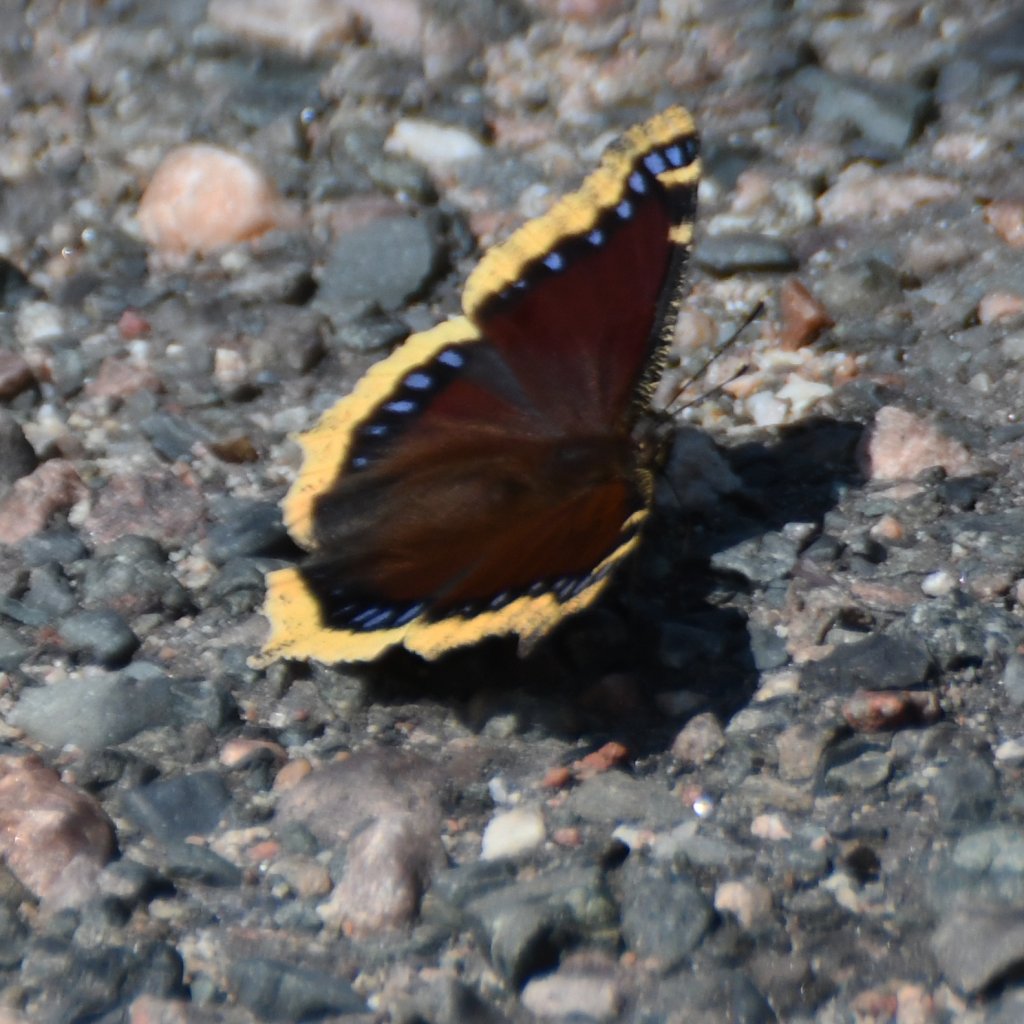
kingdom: Animalia
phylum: Arthropoda
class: Insecta
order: Lepidoptera
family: Nymphalidae
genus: Nymphalis
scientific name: Nymphalis antiopa
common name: Mourning Cloak
